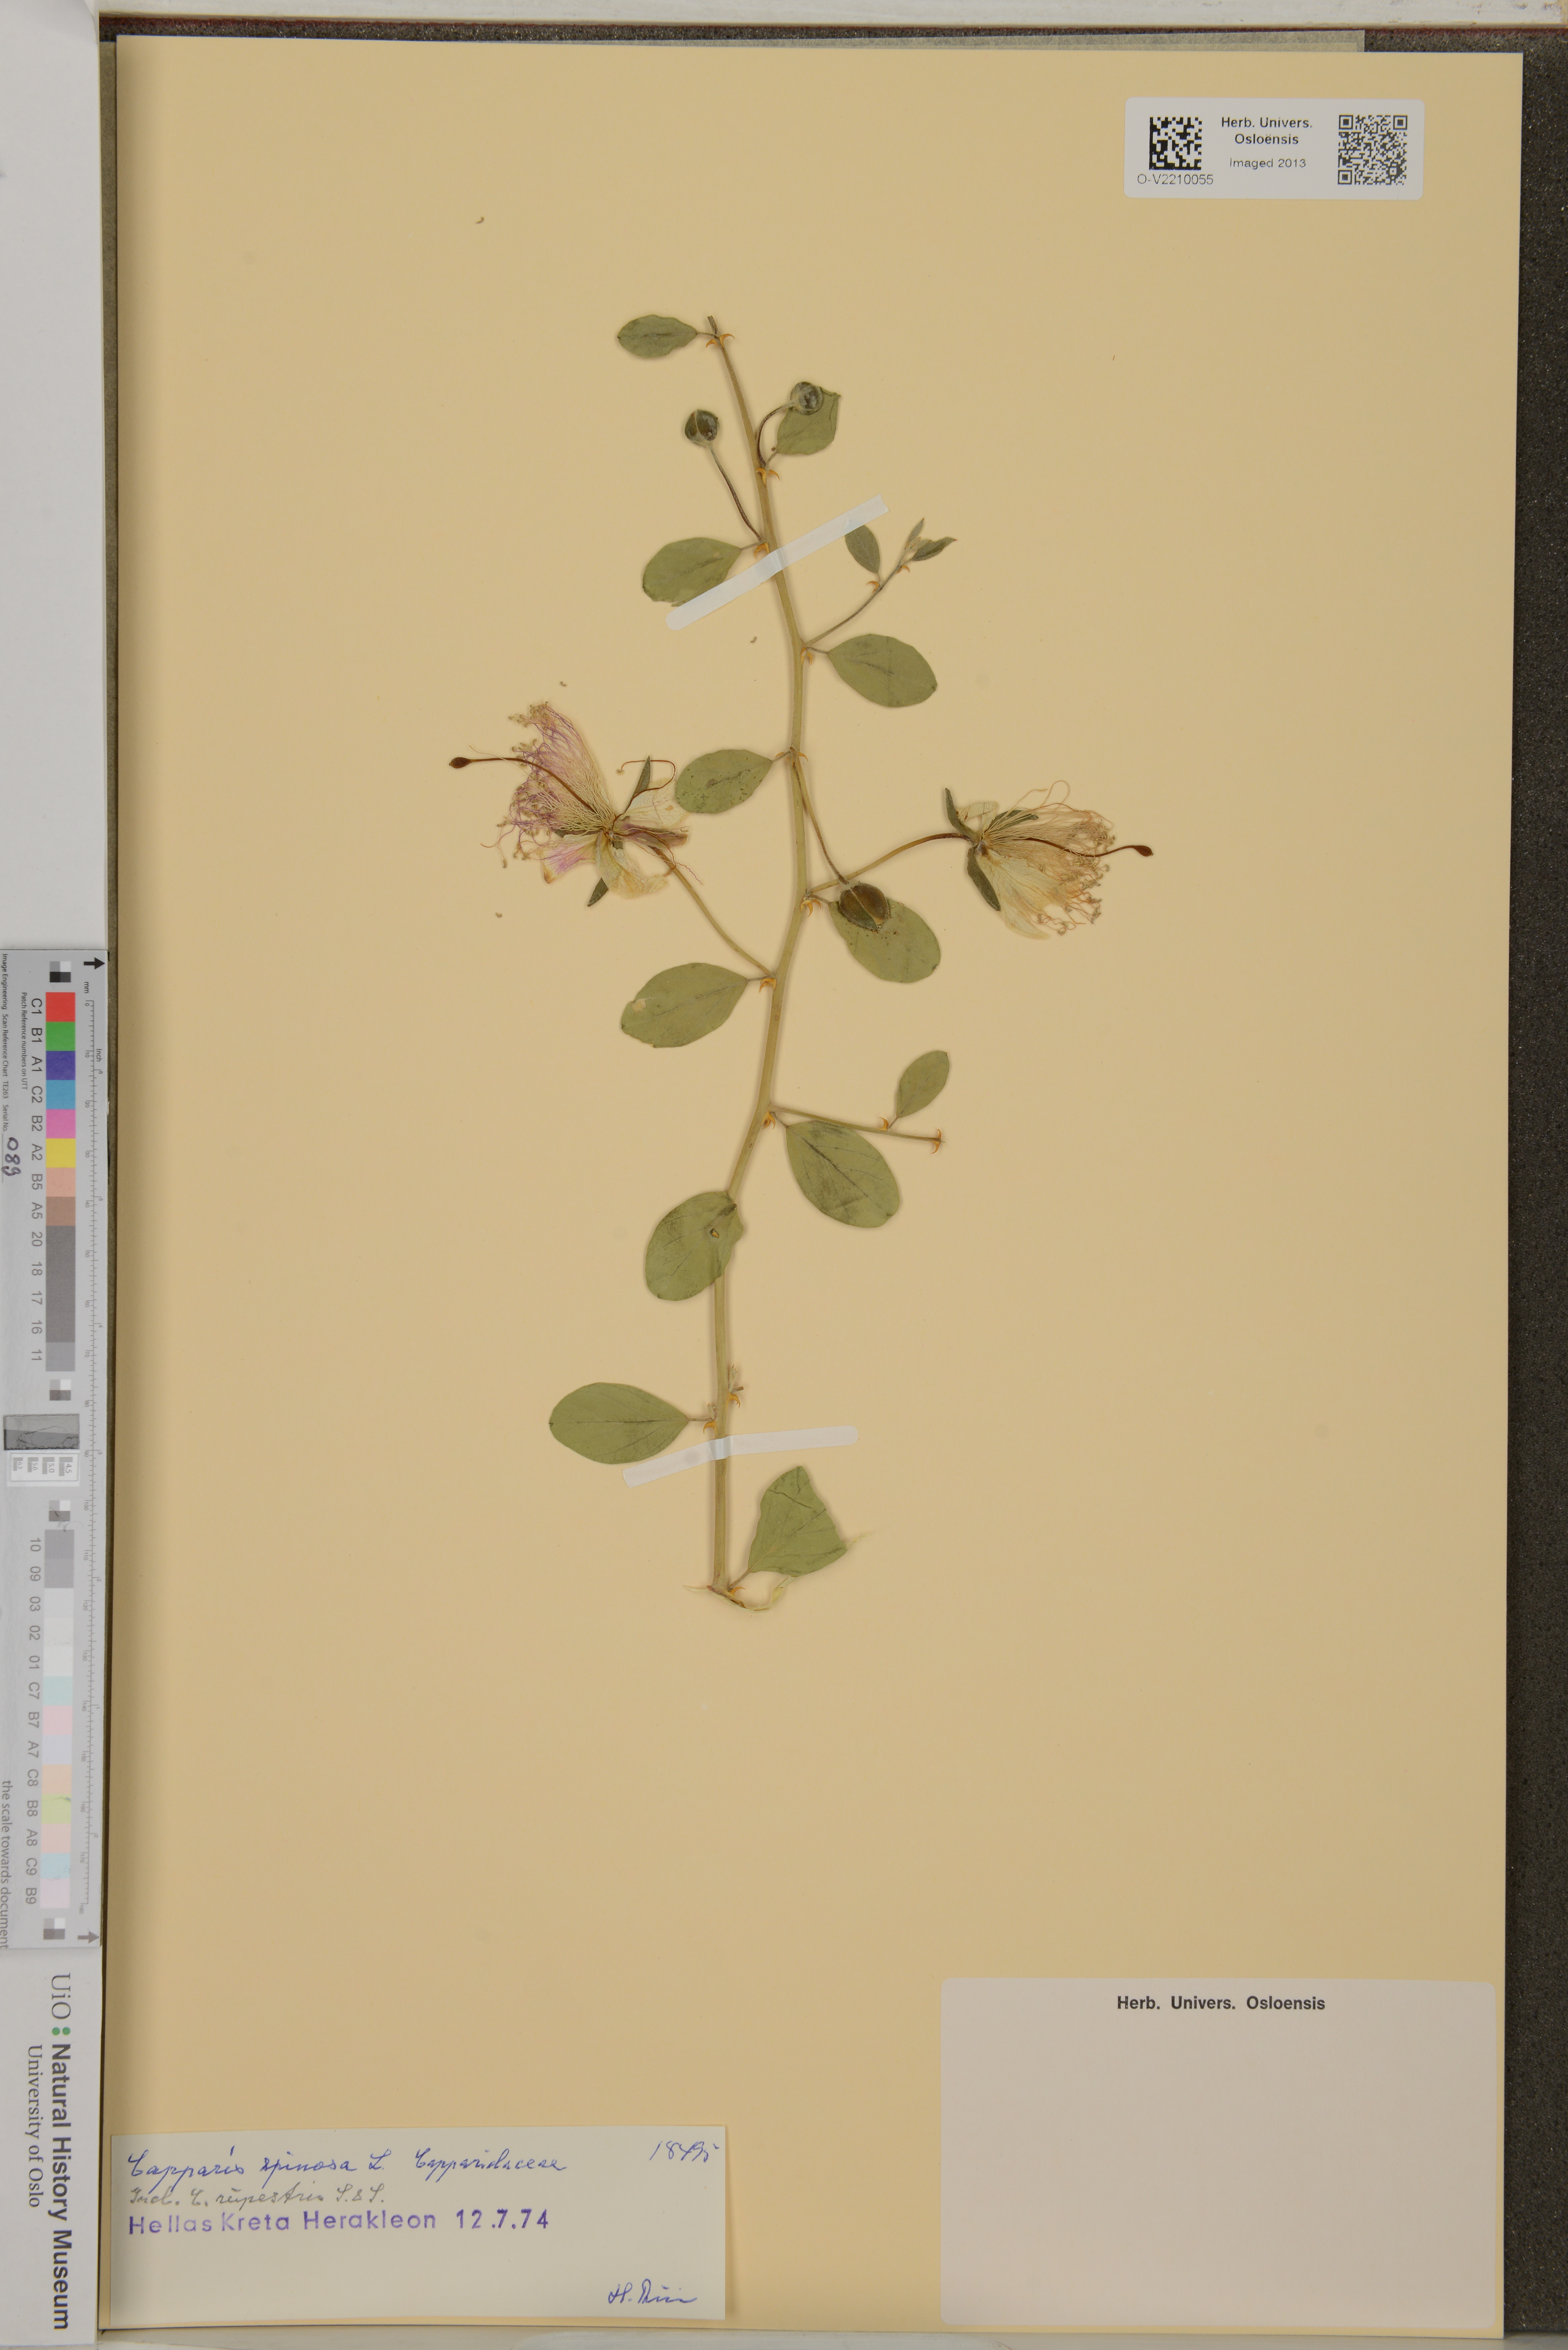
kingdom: Plantae
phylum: Tracheophyta
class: Magnoliopsida
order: Brassicales
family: Capparaceae
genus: Capparis
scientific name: Capparis spinosa
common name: Caper
